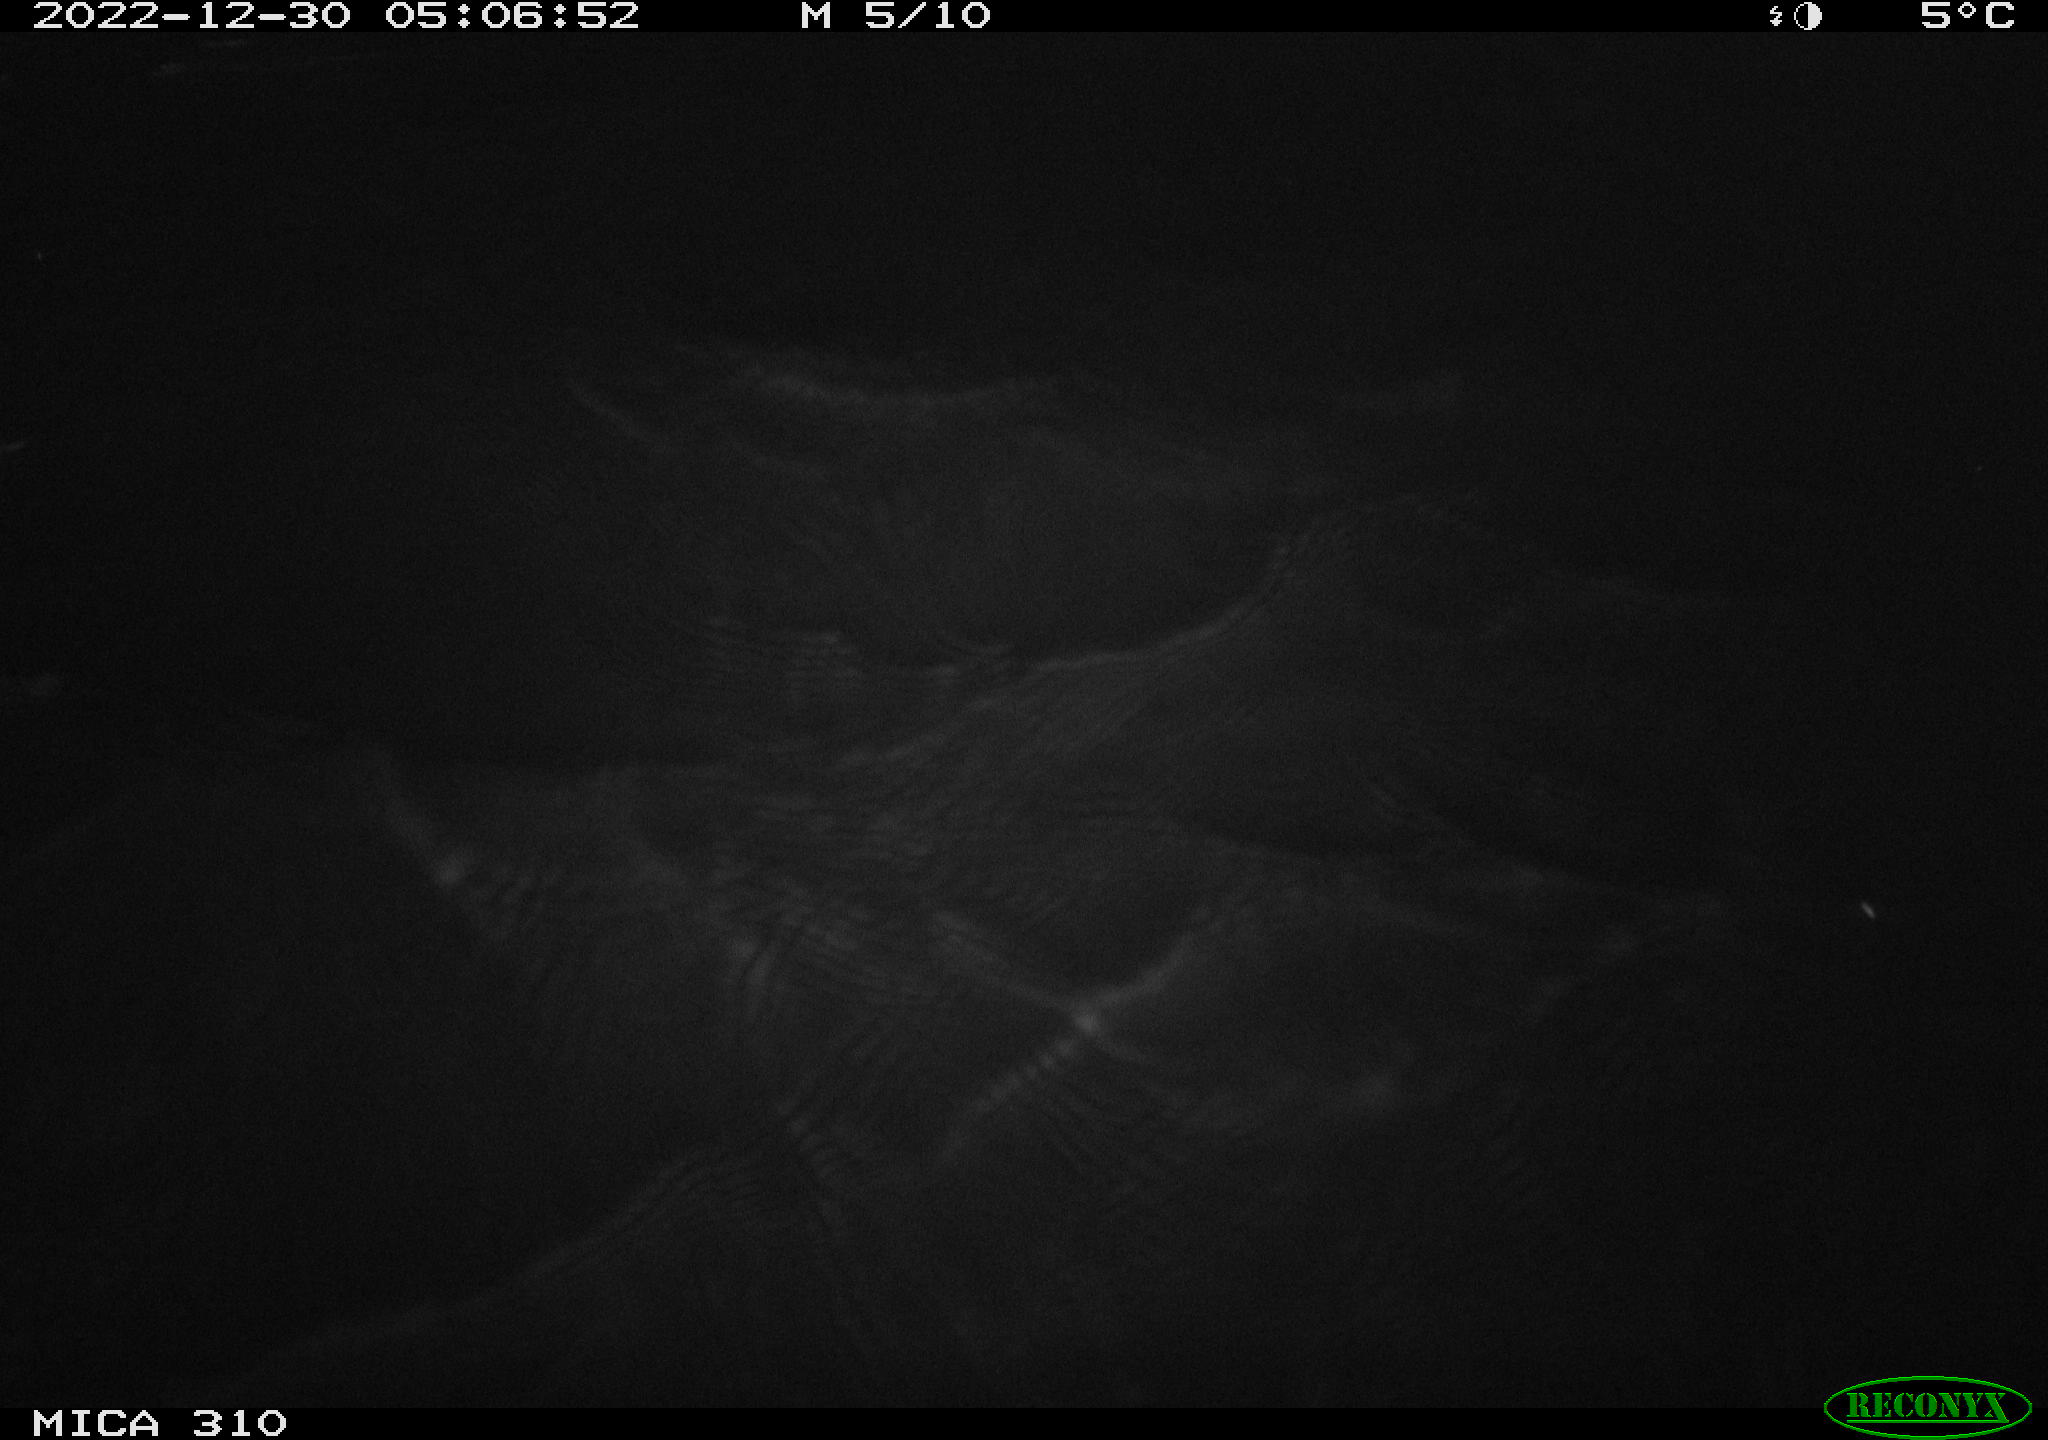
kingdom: Animalia
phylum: Chordata
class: Mammalia
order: Rodentia
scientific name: Rodentia
